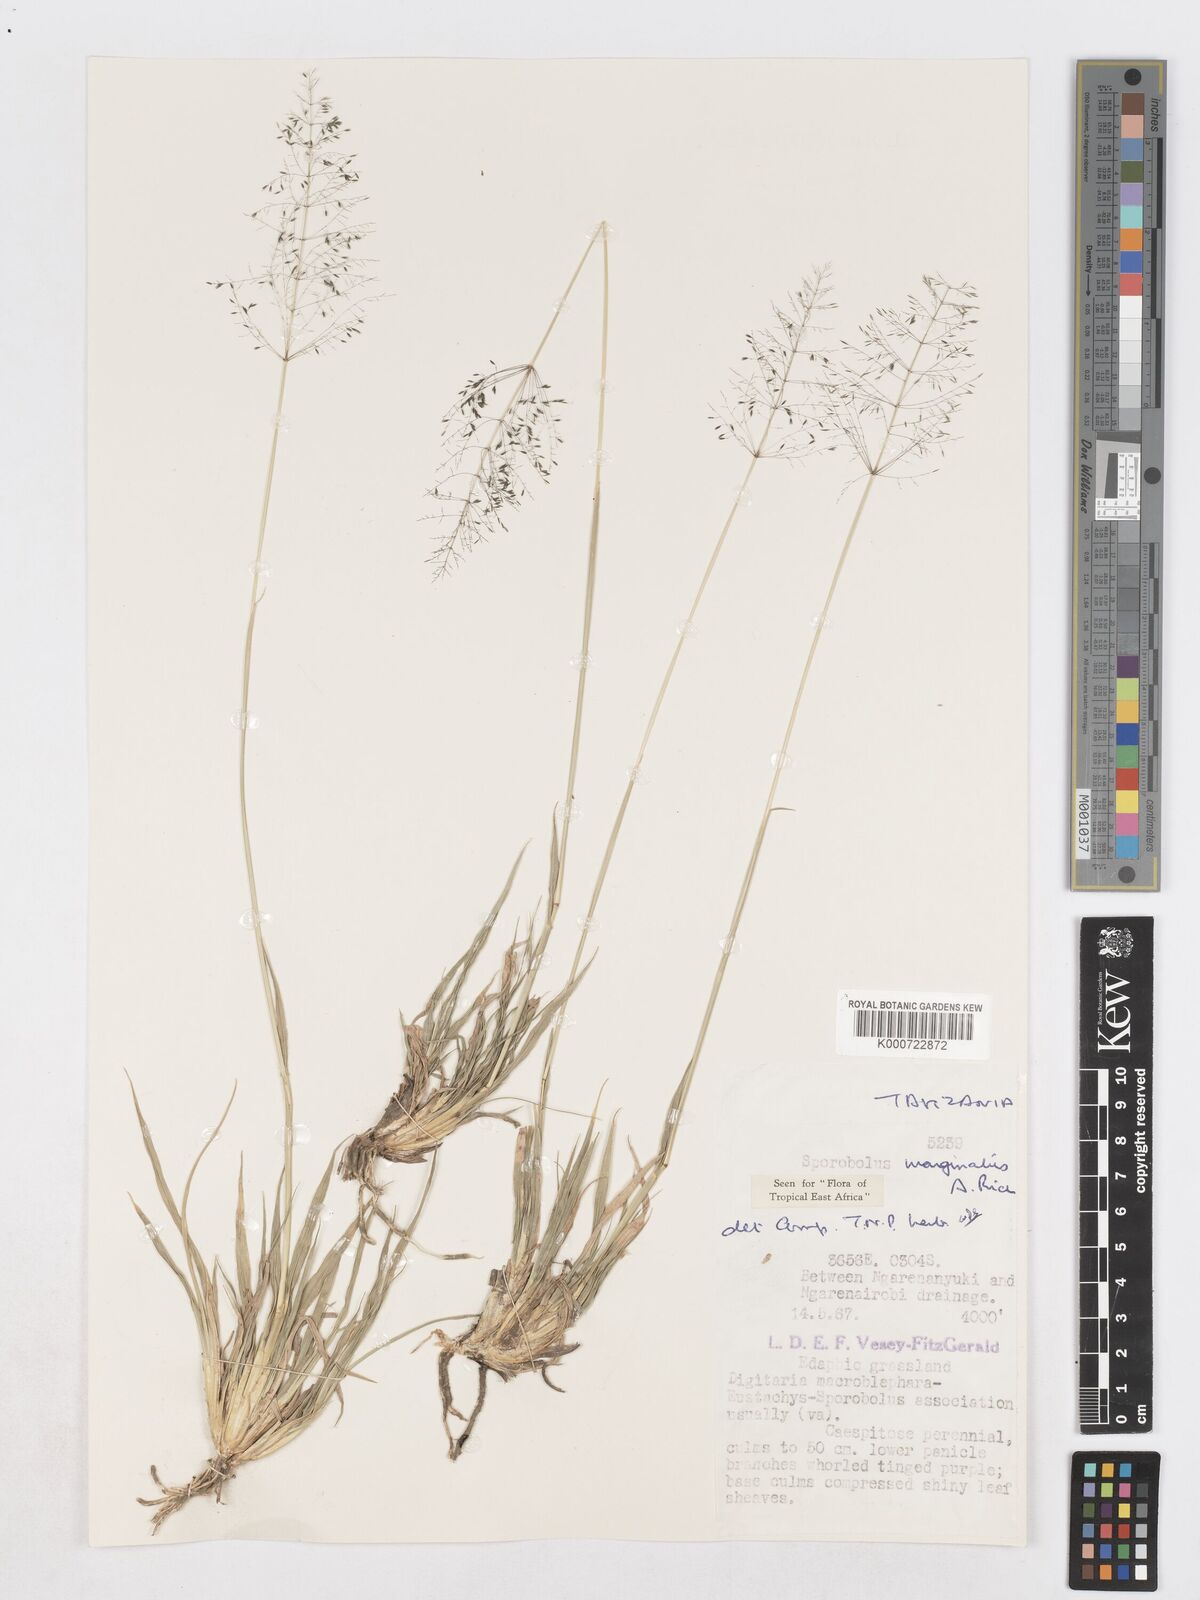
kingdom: Plantae
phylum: Tracheophyta
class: Liliopsida
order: Poales
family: Poaceae
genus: Sporobolus
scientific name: Sporobolus ioclados
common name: Pan dropseed
